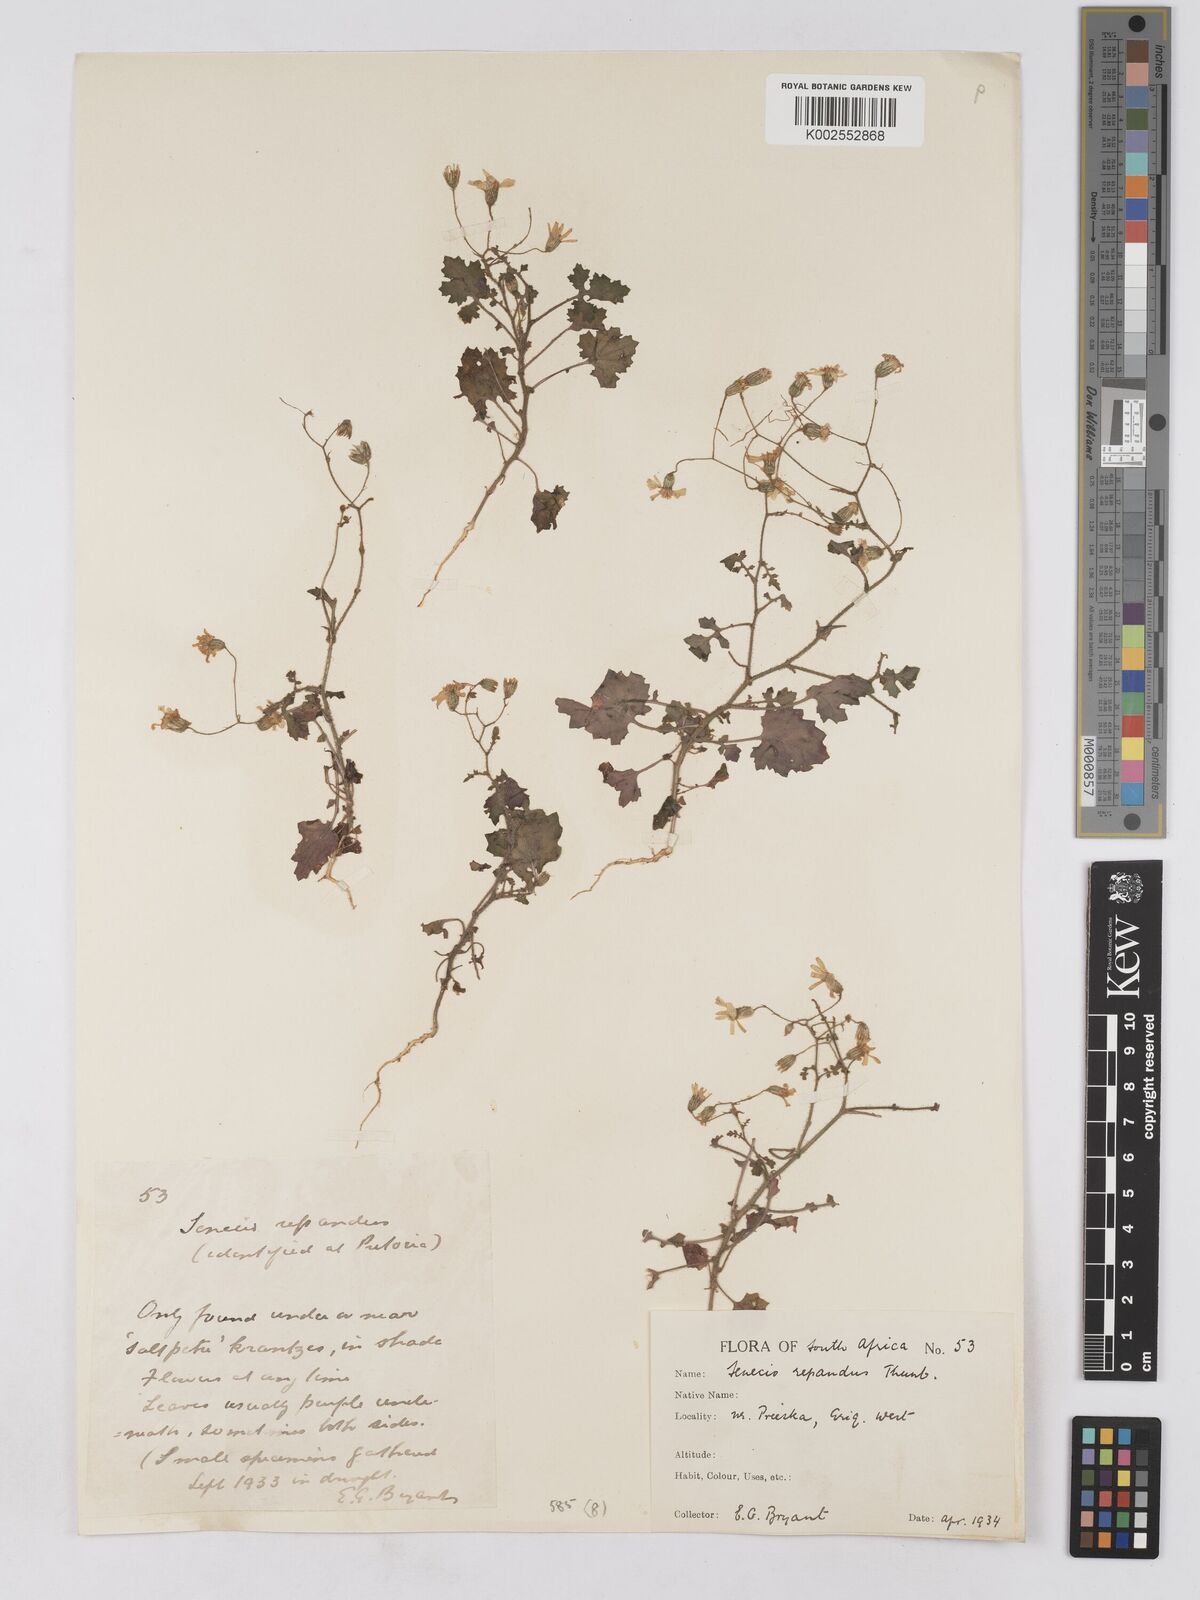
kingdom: Plantae
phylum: Tracheophyta
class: Magnoliopsida
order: Asterales
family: Asteraceae
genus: Senecio
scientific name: Senecio repandus
